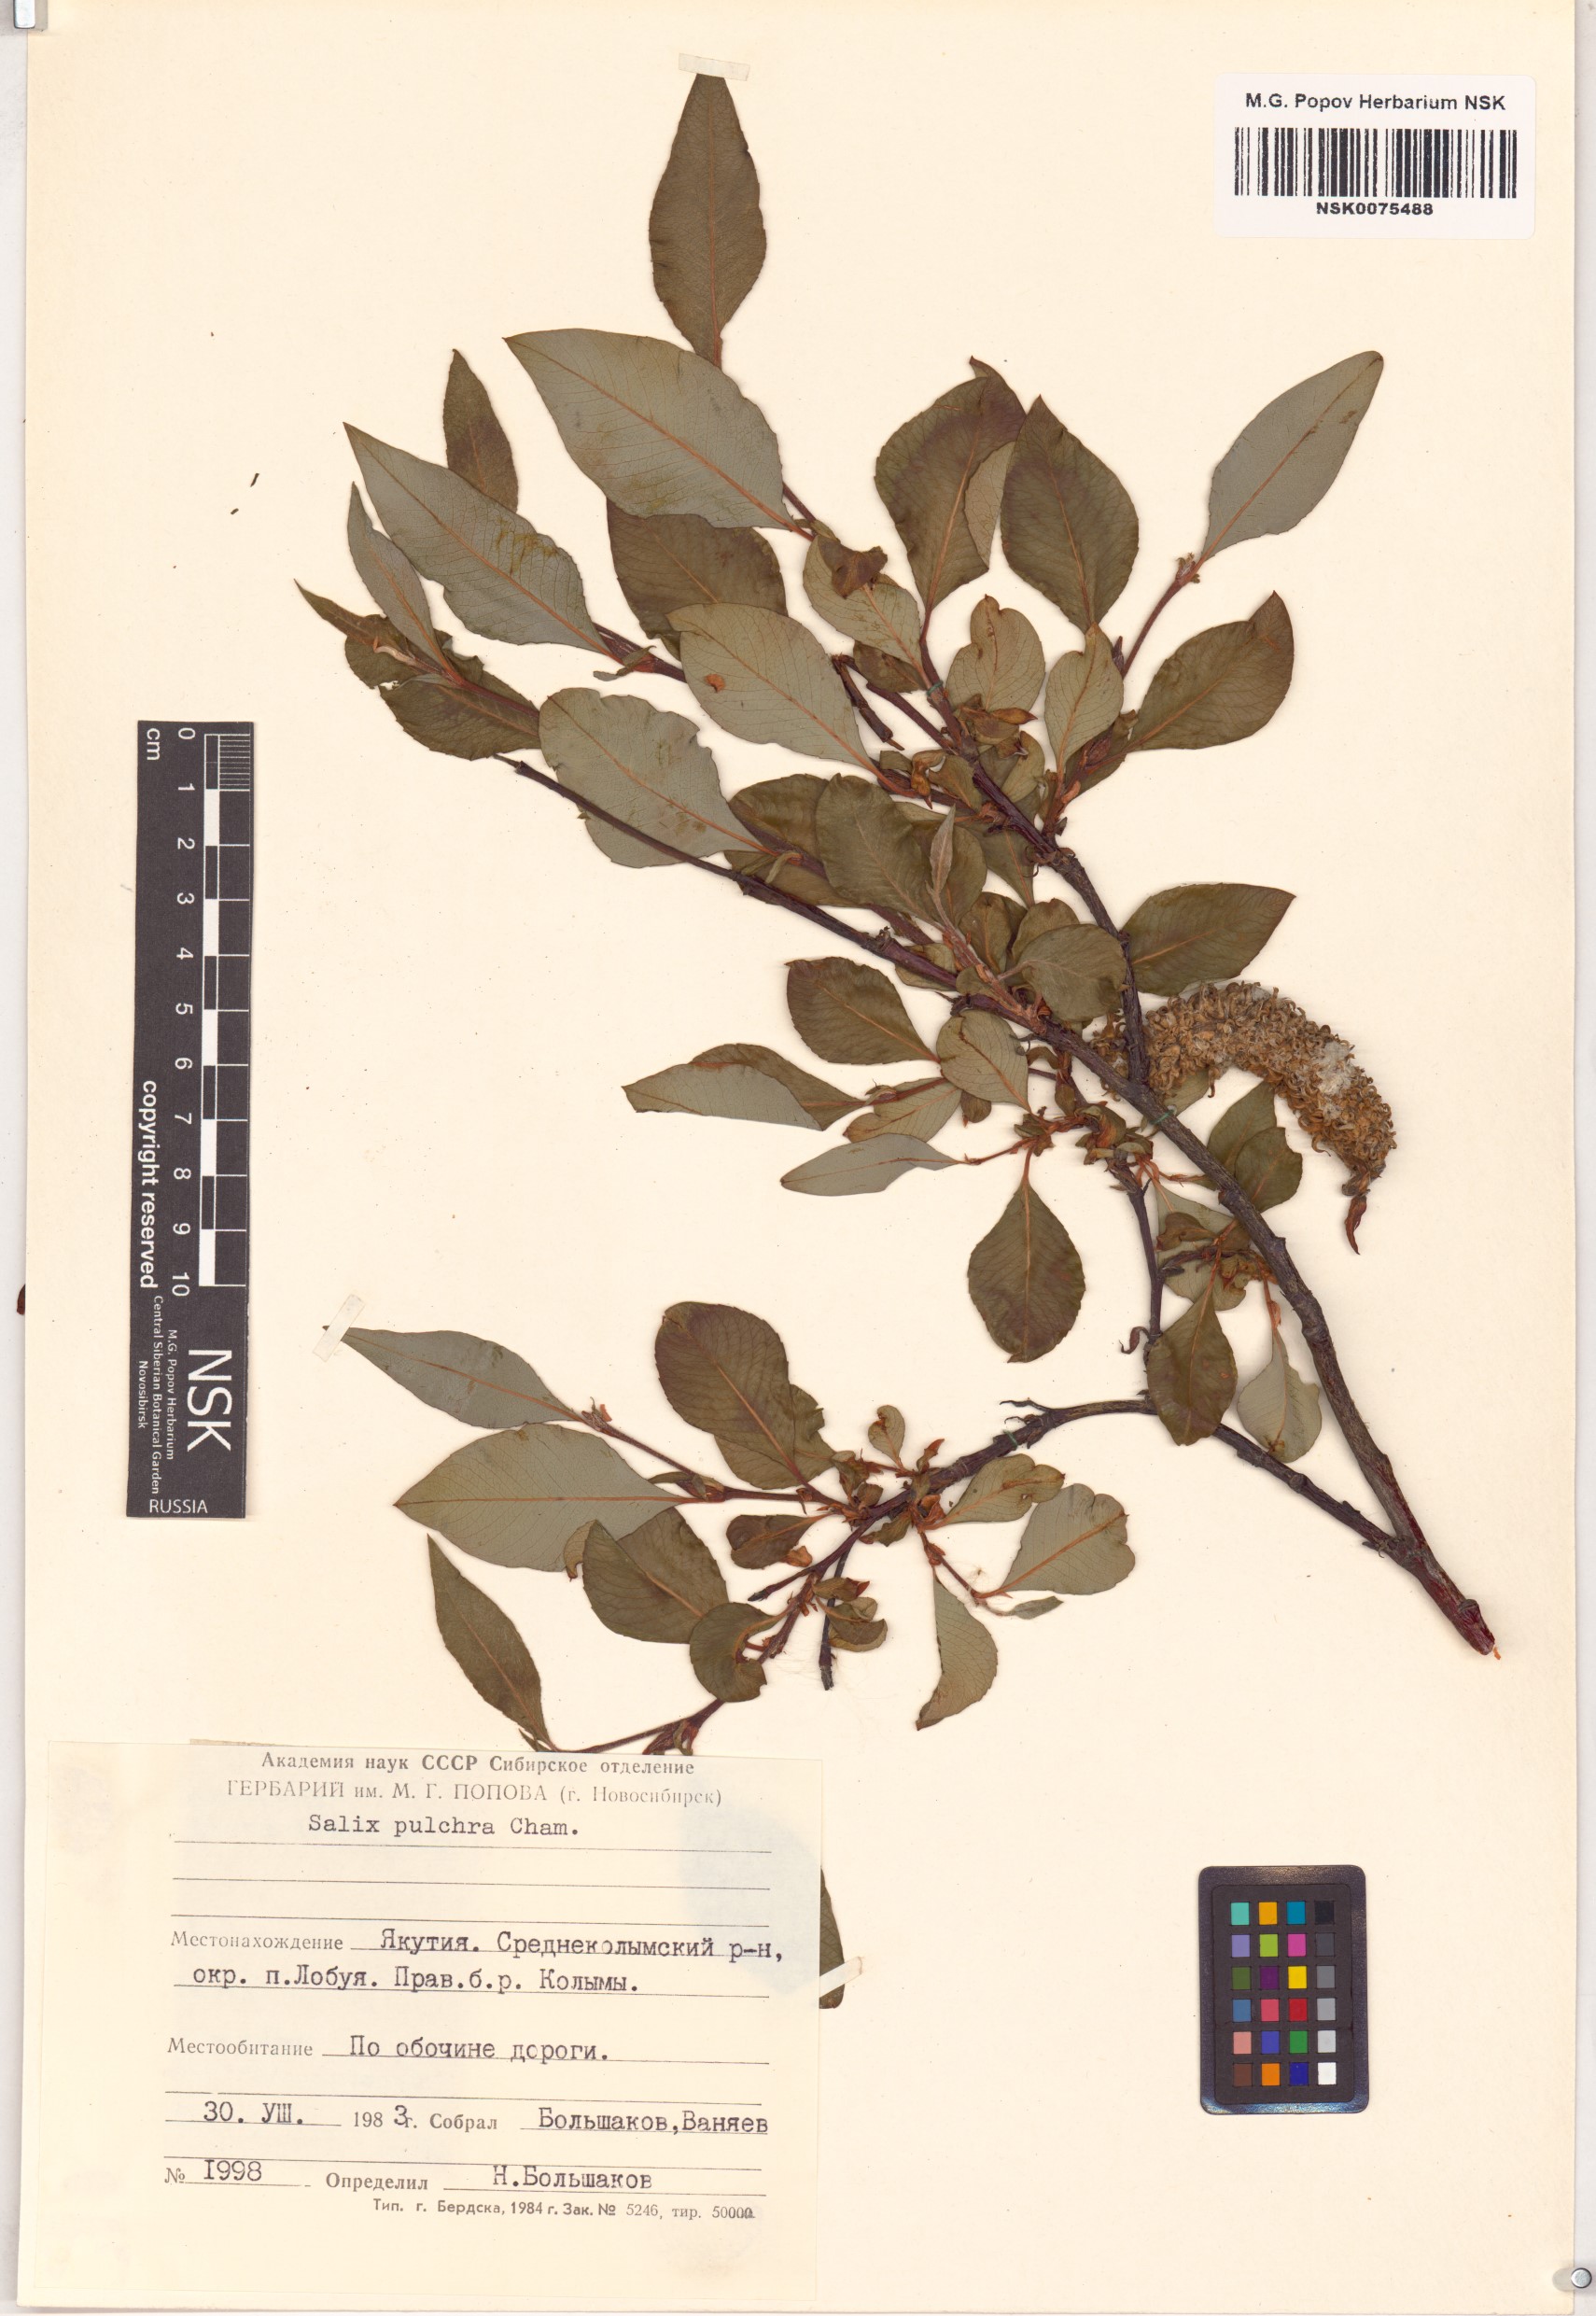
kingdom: Plantae
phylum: Tracheophyta
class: Magnoliopsida
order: Malpighiales
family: Salicaceae
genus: Salix
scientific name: Salix pulchra
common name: Diamond-leaved willow
